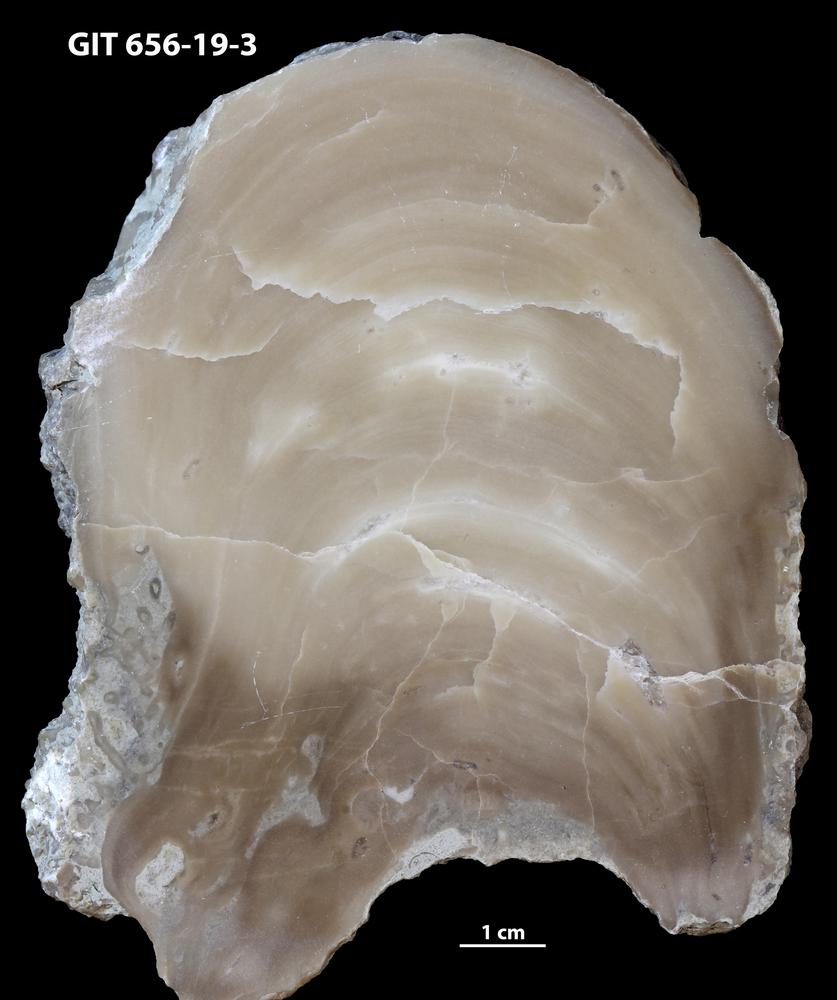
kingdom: Animalia
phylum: Cnidaria
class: Anthozoa
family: Auloporidae
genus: Aulopora
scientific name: Aulopora
